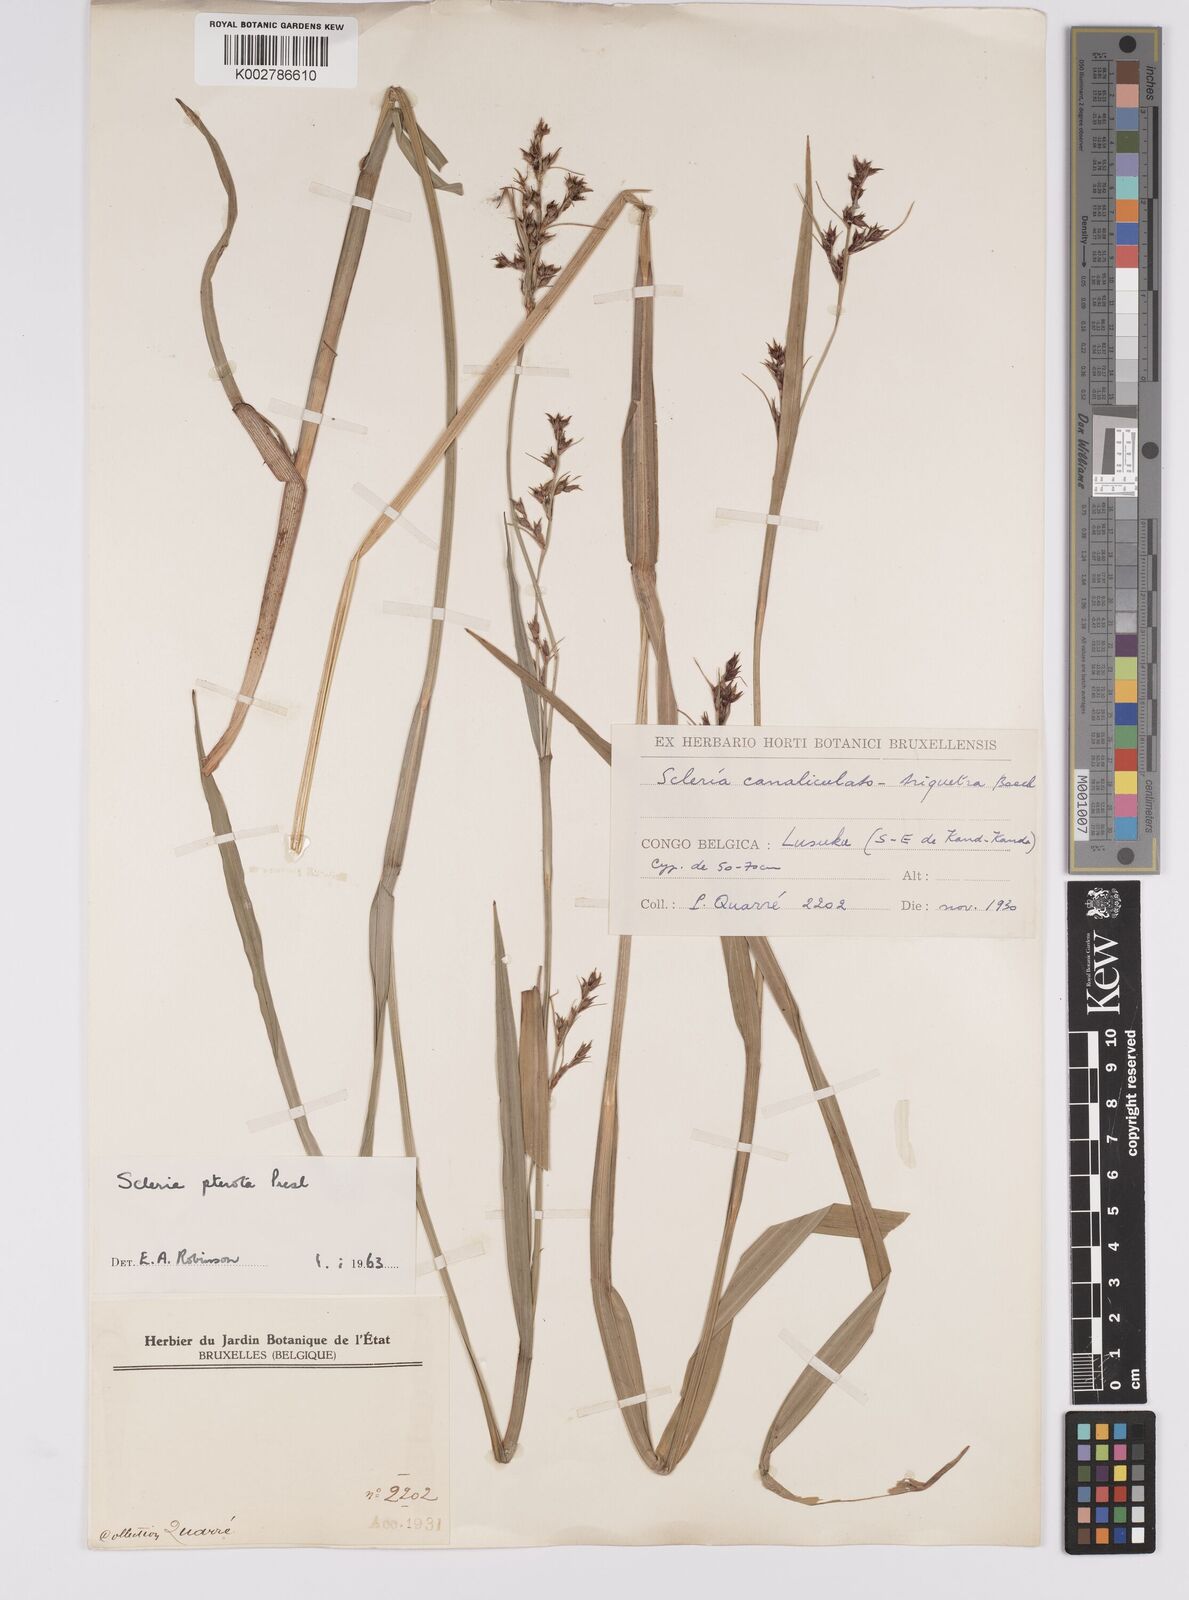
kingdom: Plantae
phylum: Tracheophyta
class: Liliopsida
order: Poales
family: Cyperaceae
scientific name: Cyperaceae
